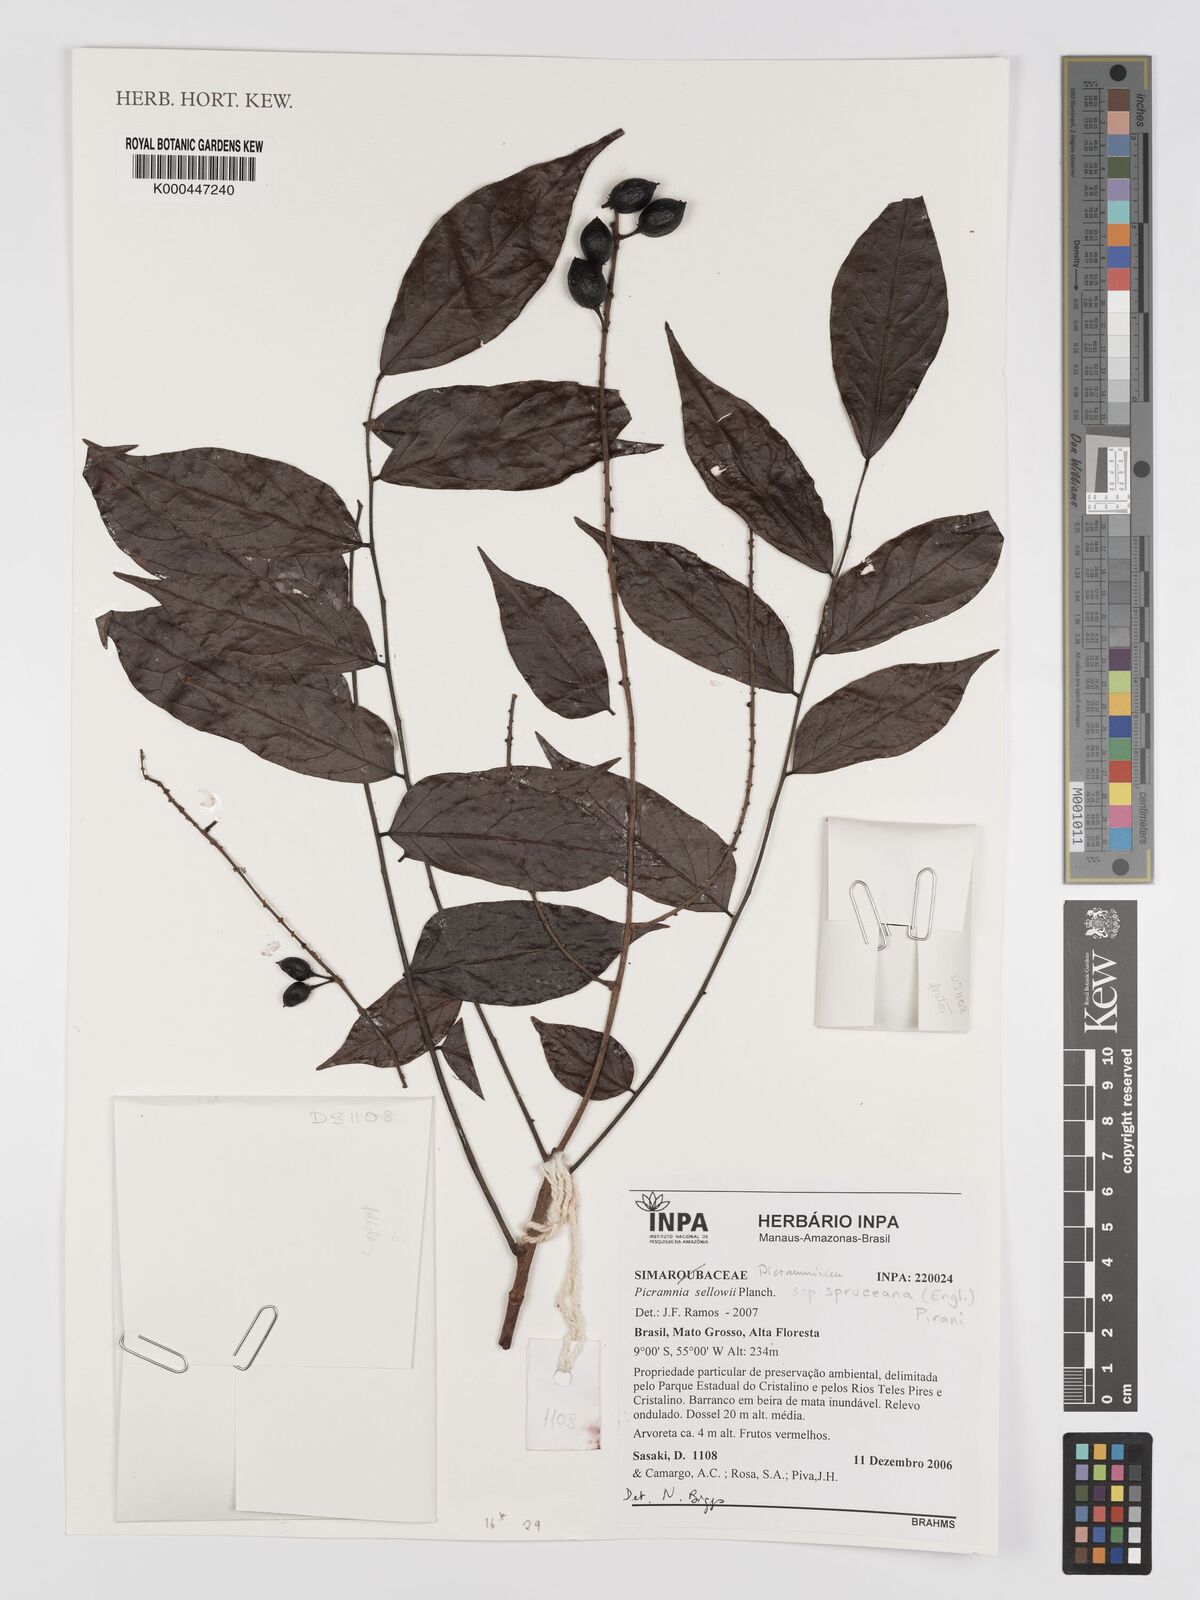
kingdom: Plantae
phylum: Tracheophyta
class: Magnoliopsida
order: Picramniales
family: Picramniaceae
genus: Picramnia
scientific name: Picramnia spruceana
